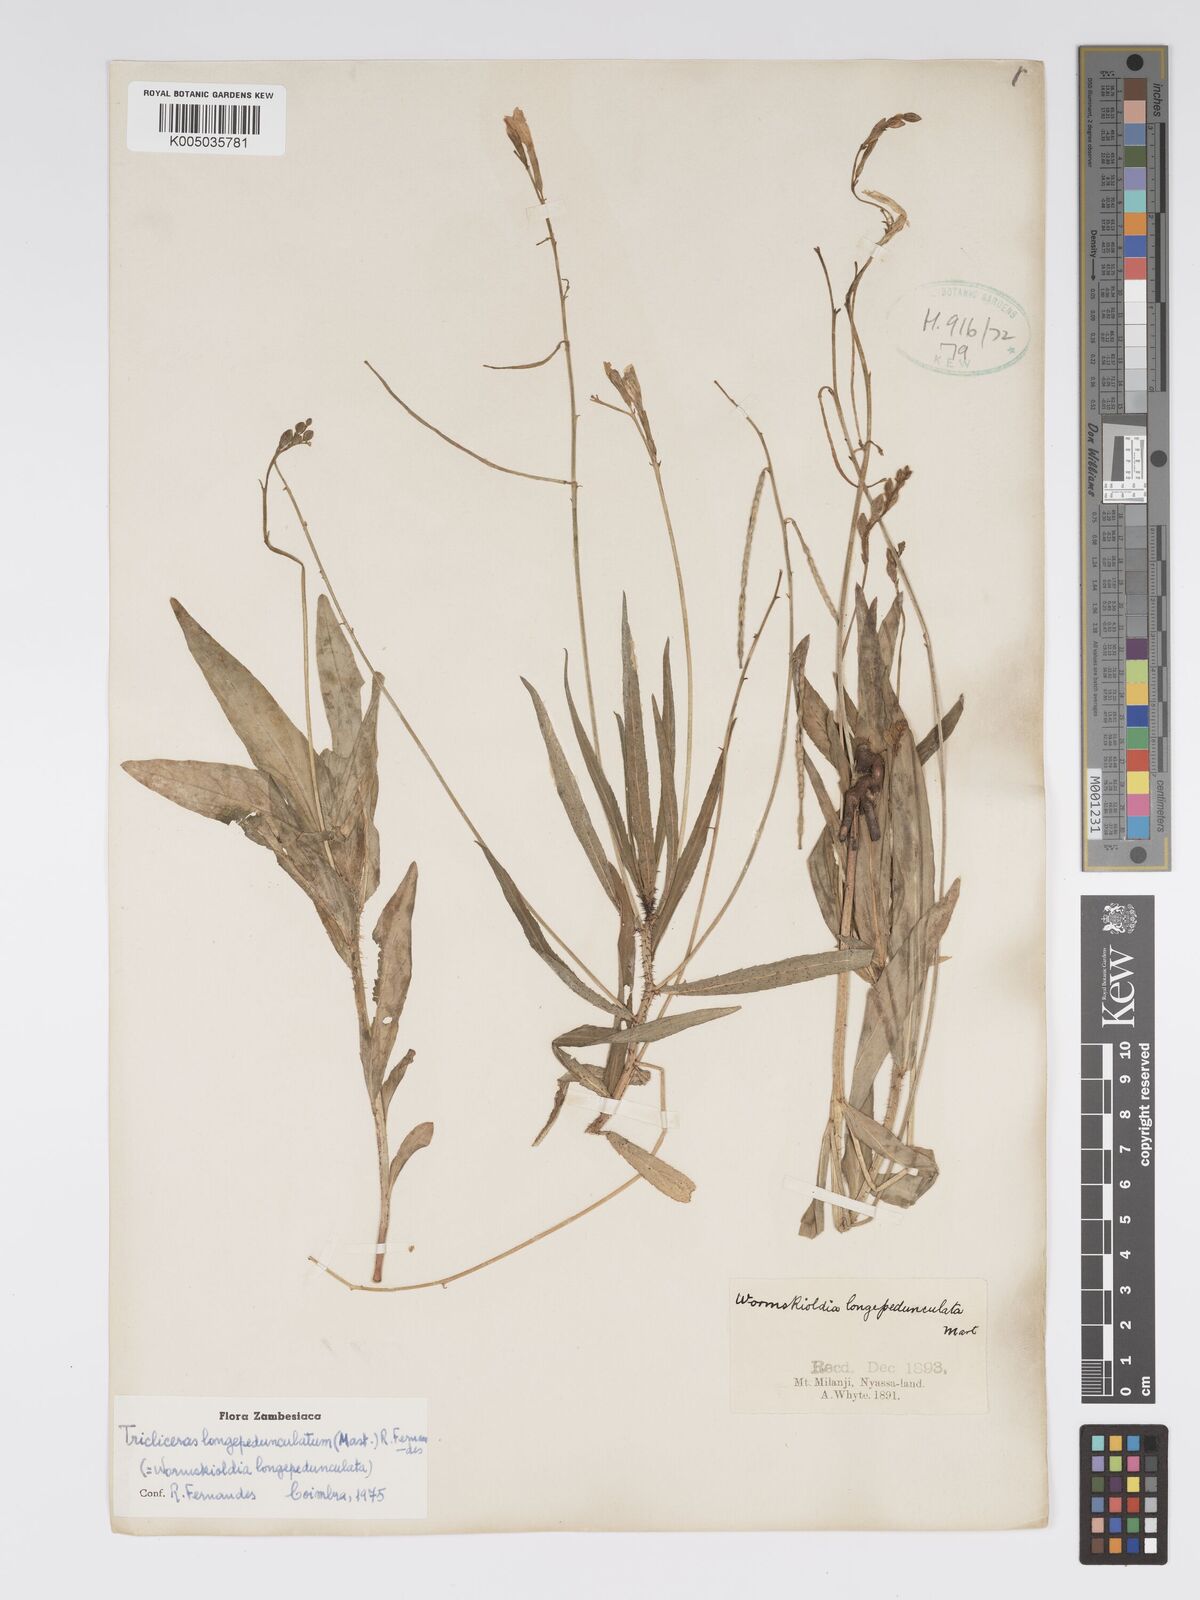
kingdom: Plantae
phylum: Tracheophyta
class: Magnoliopsida
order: Malpighiales
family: Turneraceae
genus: Tricliceras
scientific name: Tricliceras longepedunculatum
